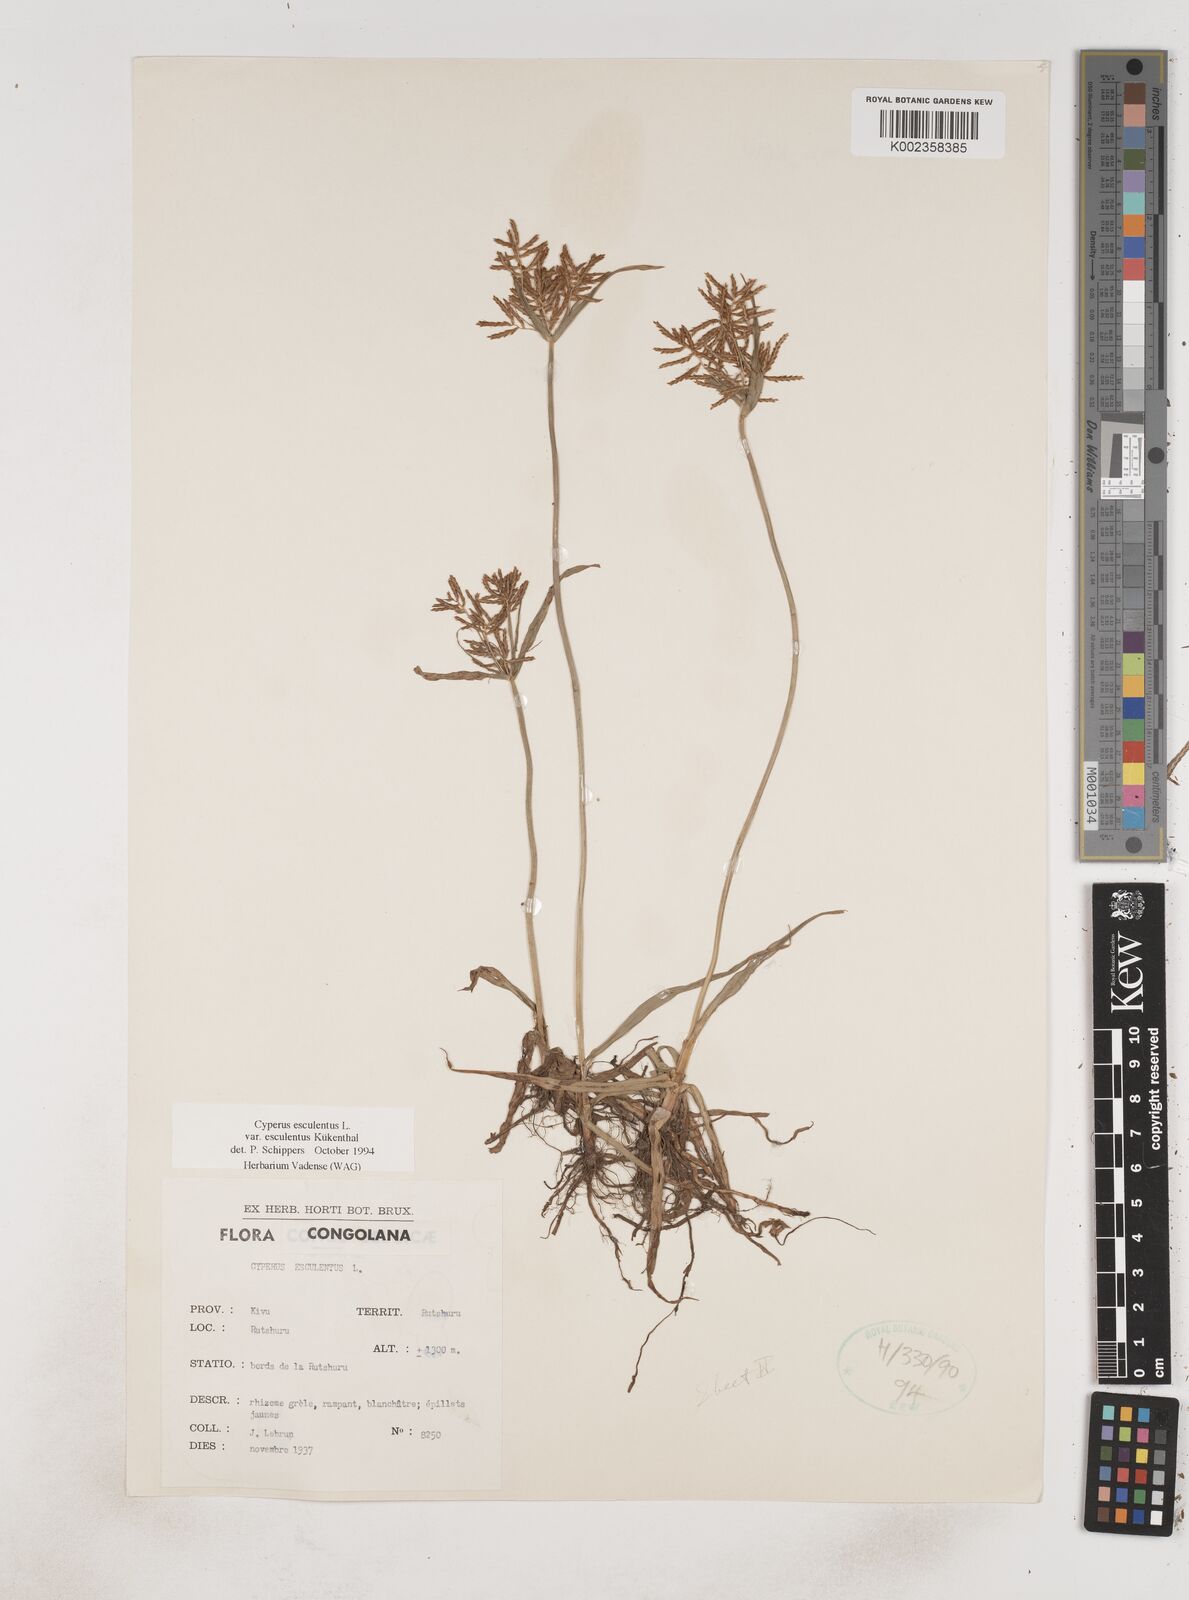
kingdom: Plantae
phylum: Tracheophyta
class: Liliopsida
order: Poales
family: Cyperaceae
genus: Cyperus
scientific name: Cyperus esculentus
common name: Yellow nutsedge
